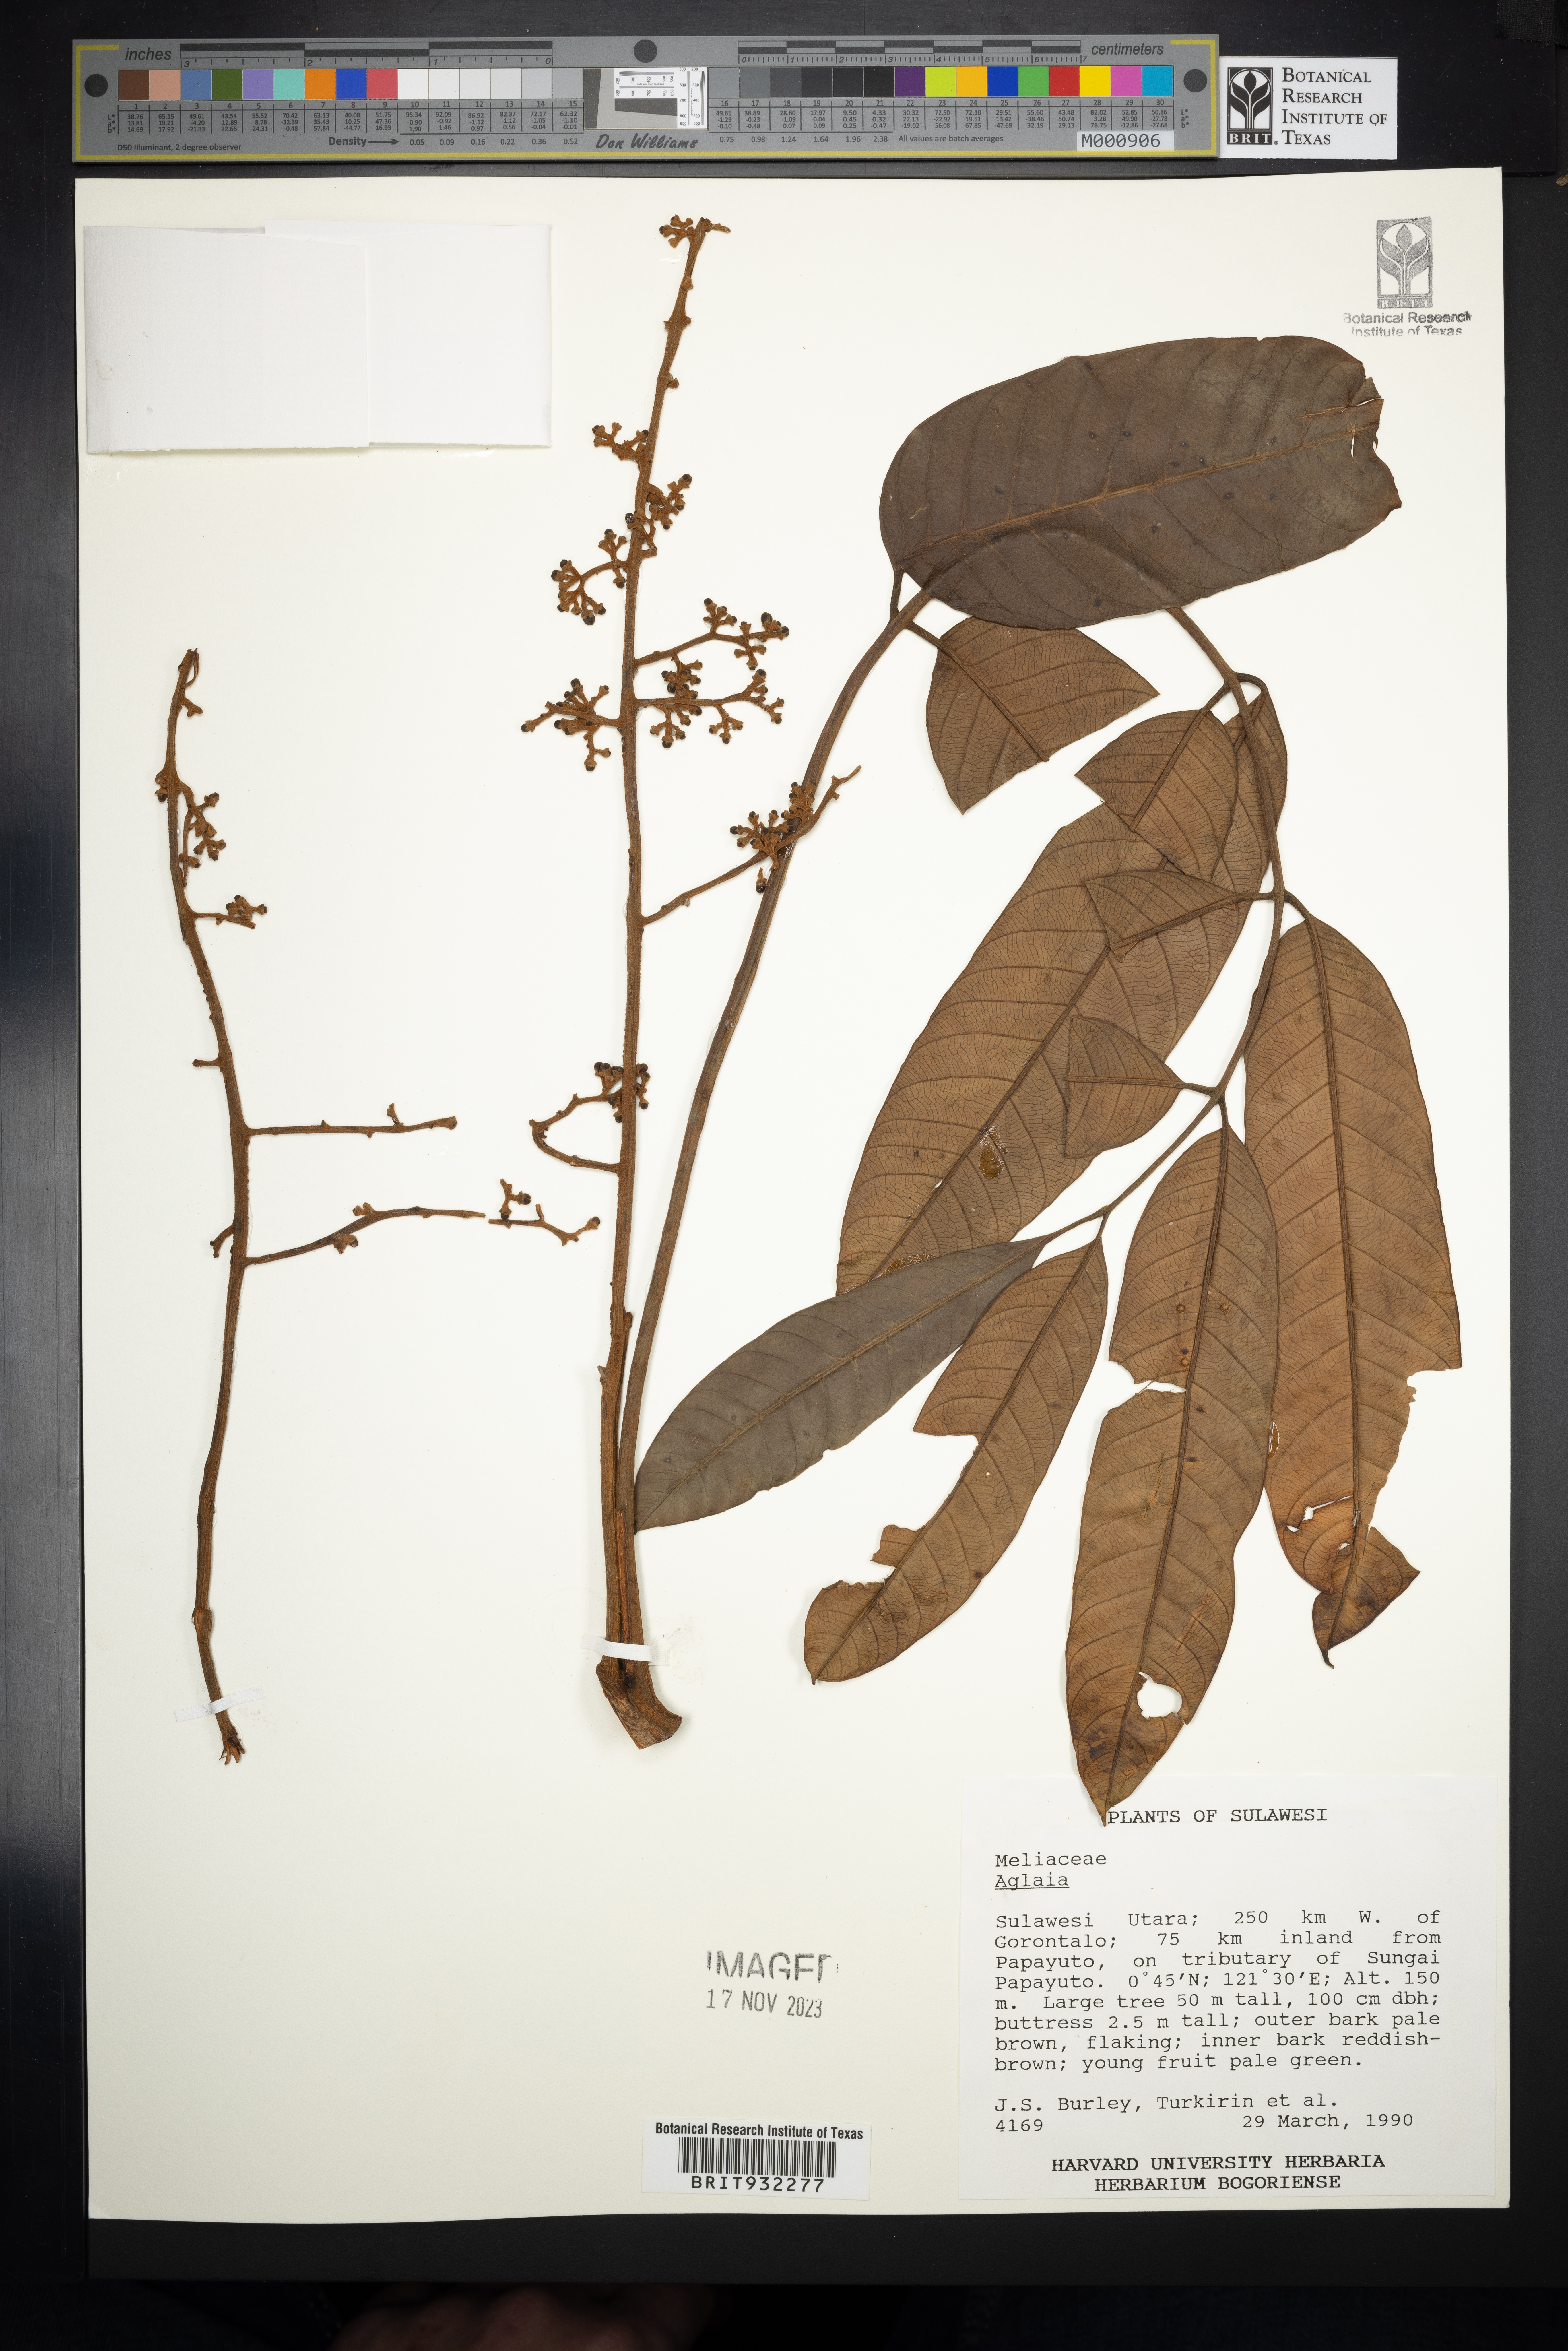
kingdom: Plantae
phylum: Tracheophyta
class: Magnoliopsida
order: Sapindales
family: Meliaceae
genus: Aglaia
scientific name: Aglaia
